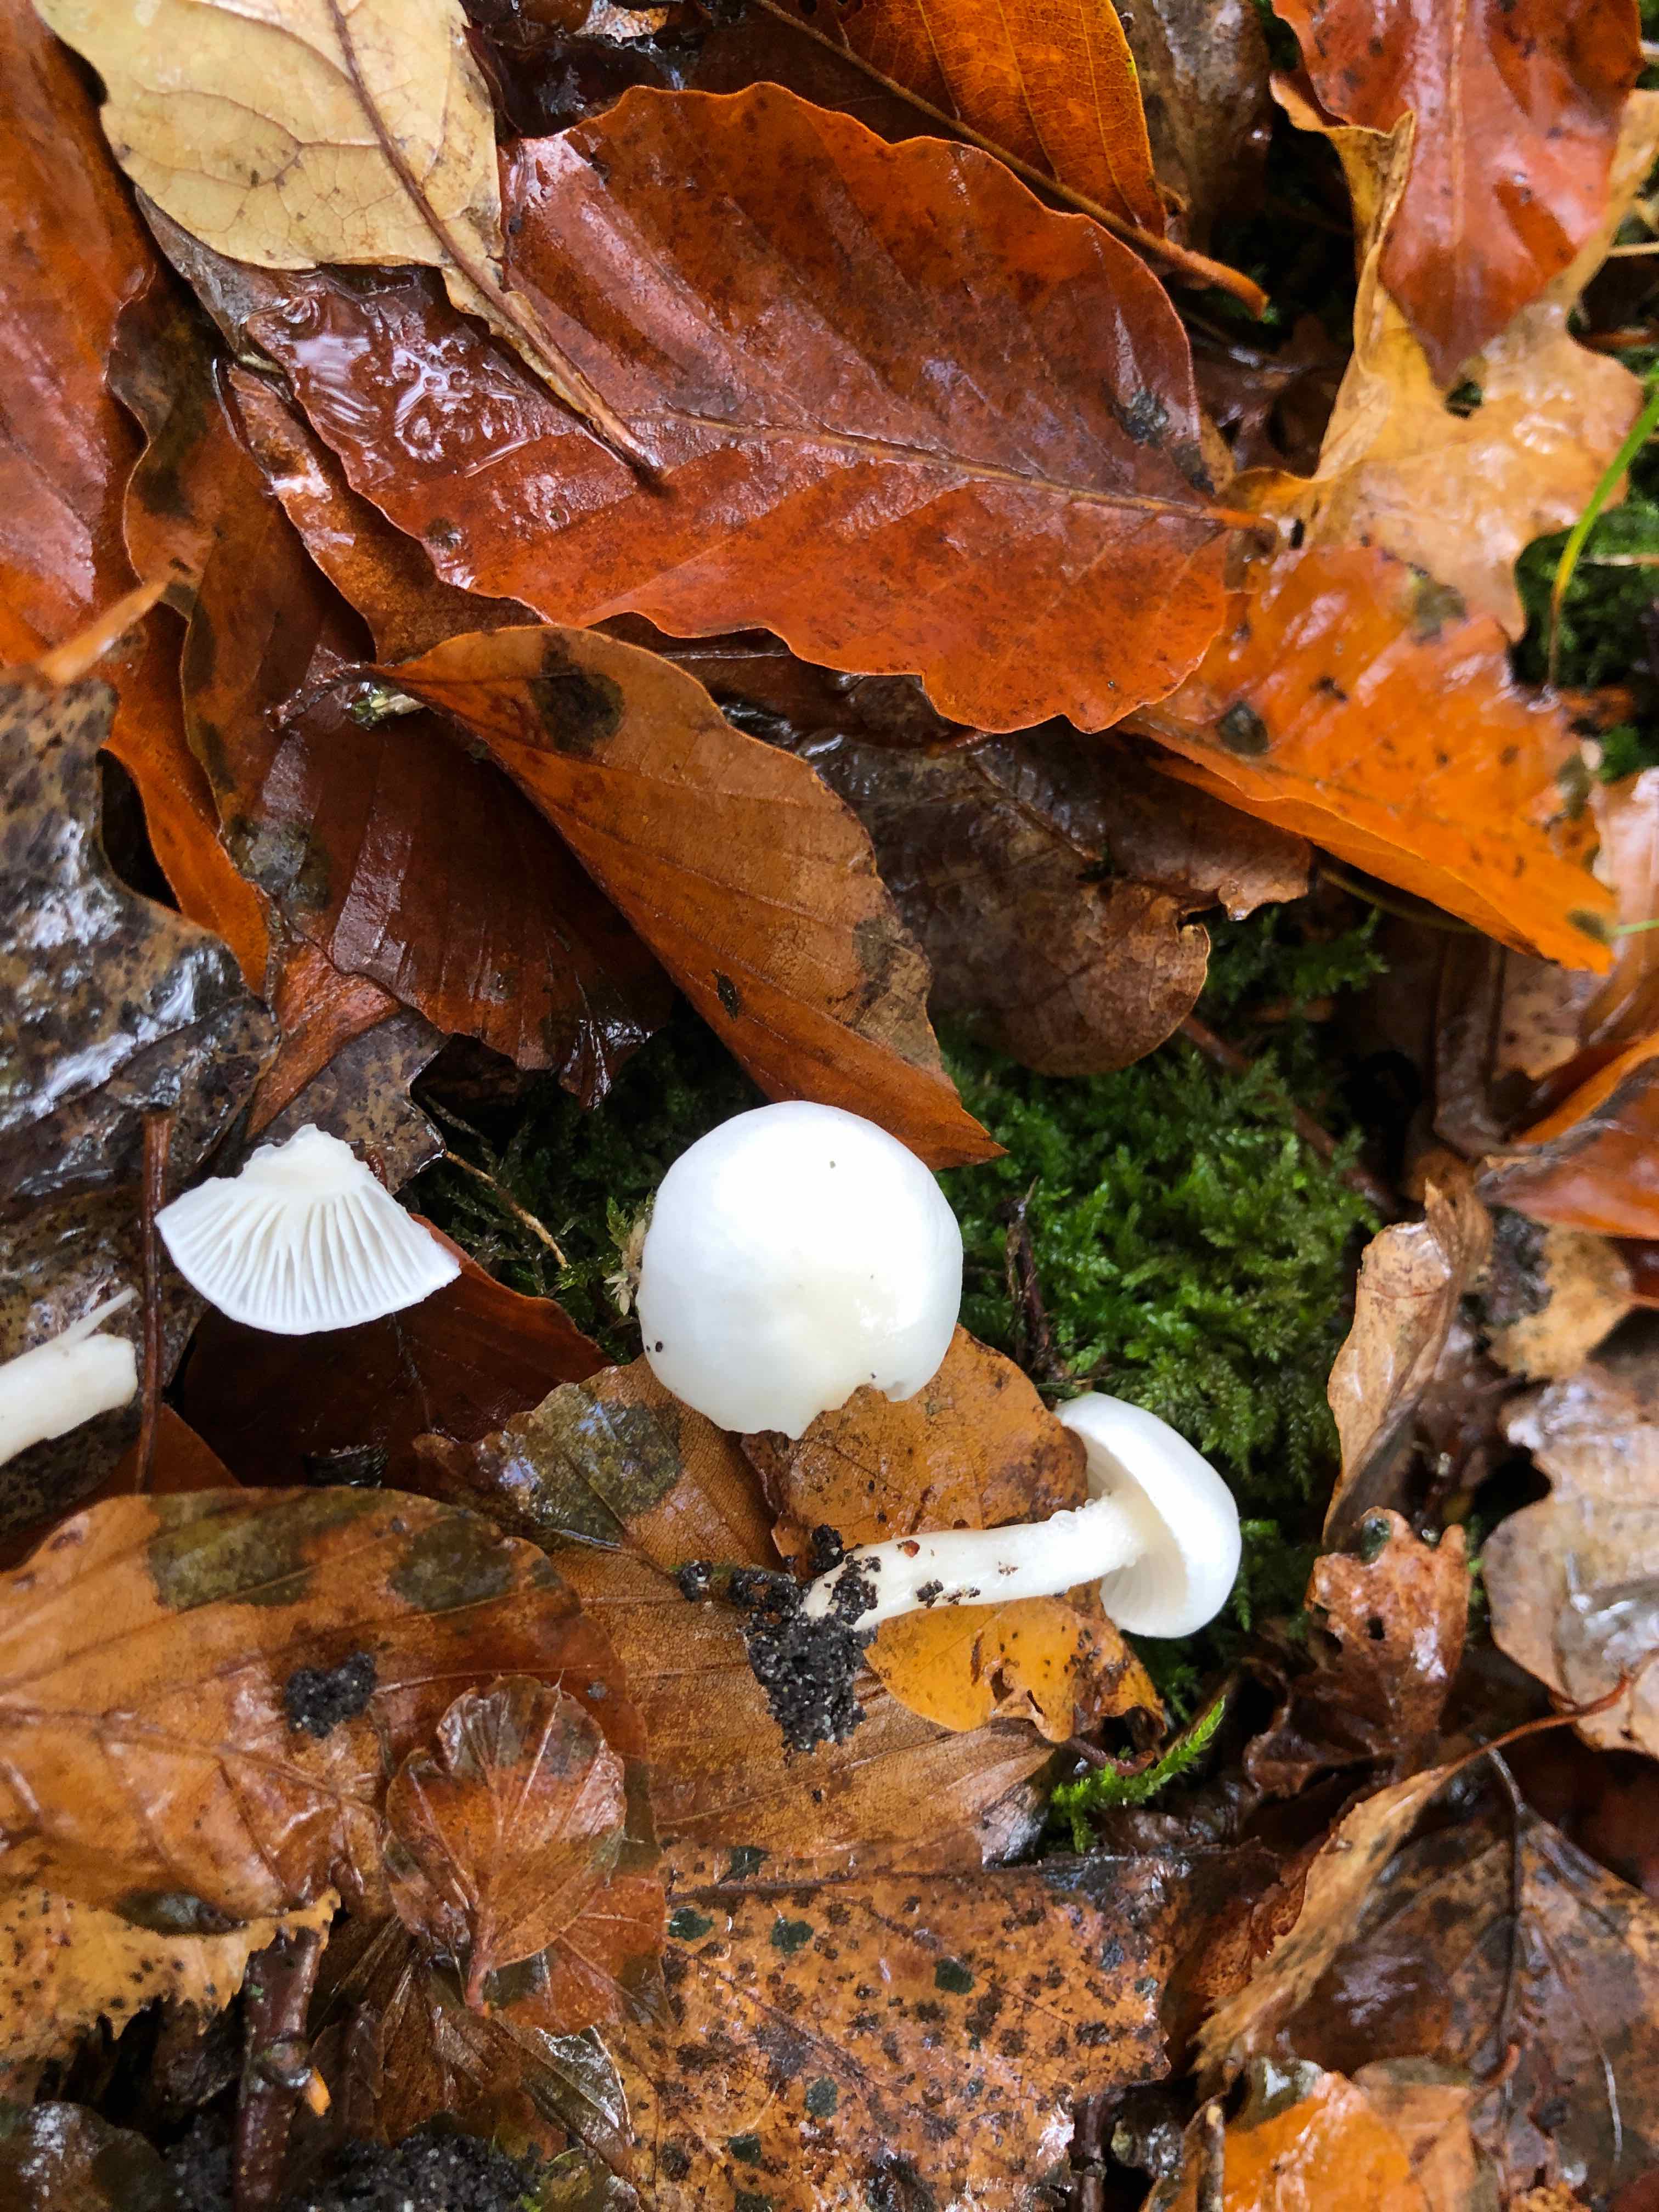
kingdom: Fungi
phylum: Basidiomycota
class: Agaricomycetes
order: Agaricales
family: Hygrophoraceae
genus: Hygrophorus
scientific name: Hygrophorus eburneus
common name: elfenbens-sneglehat
